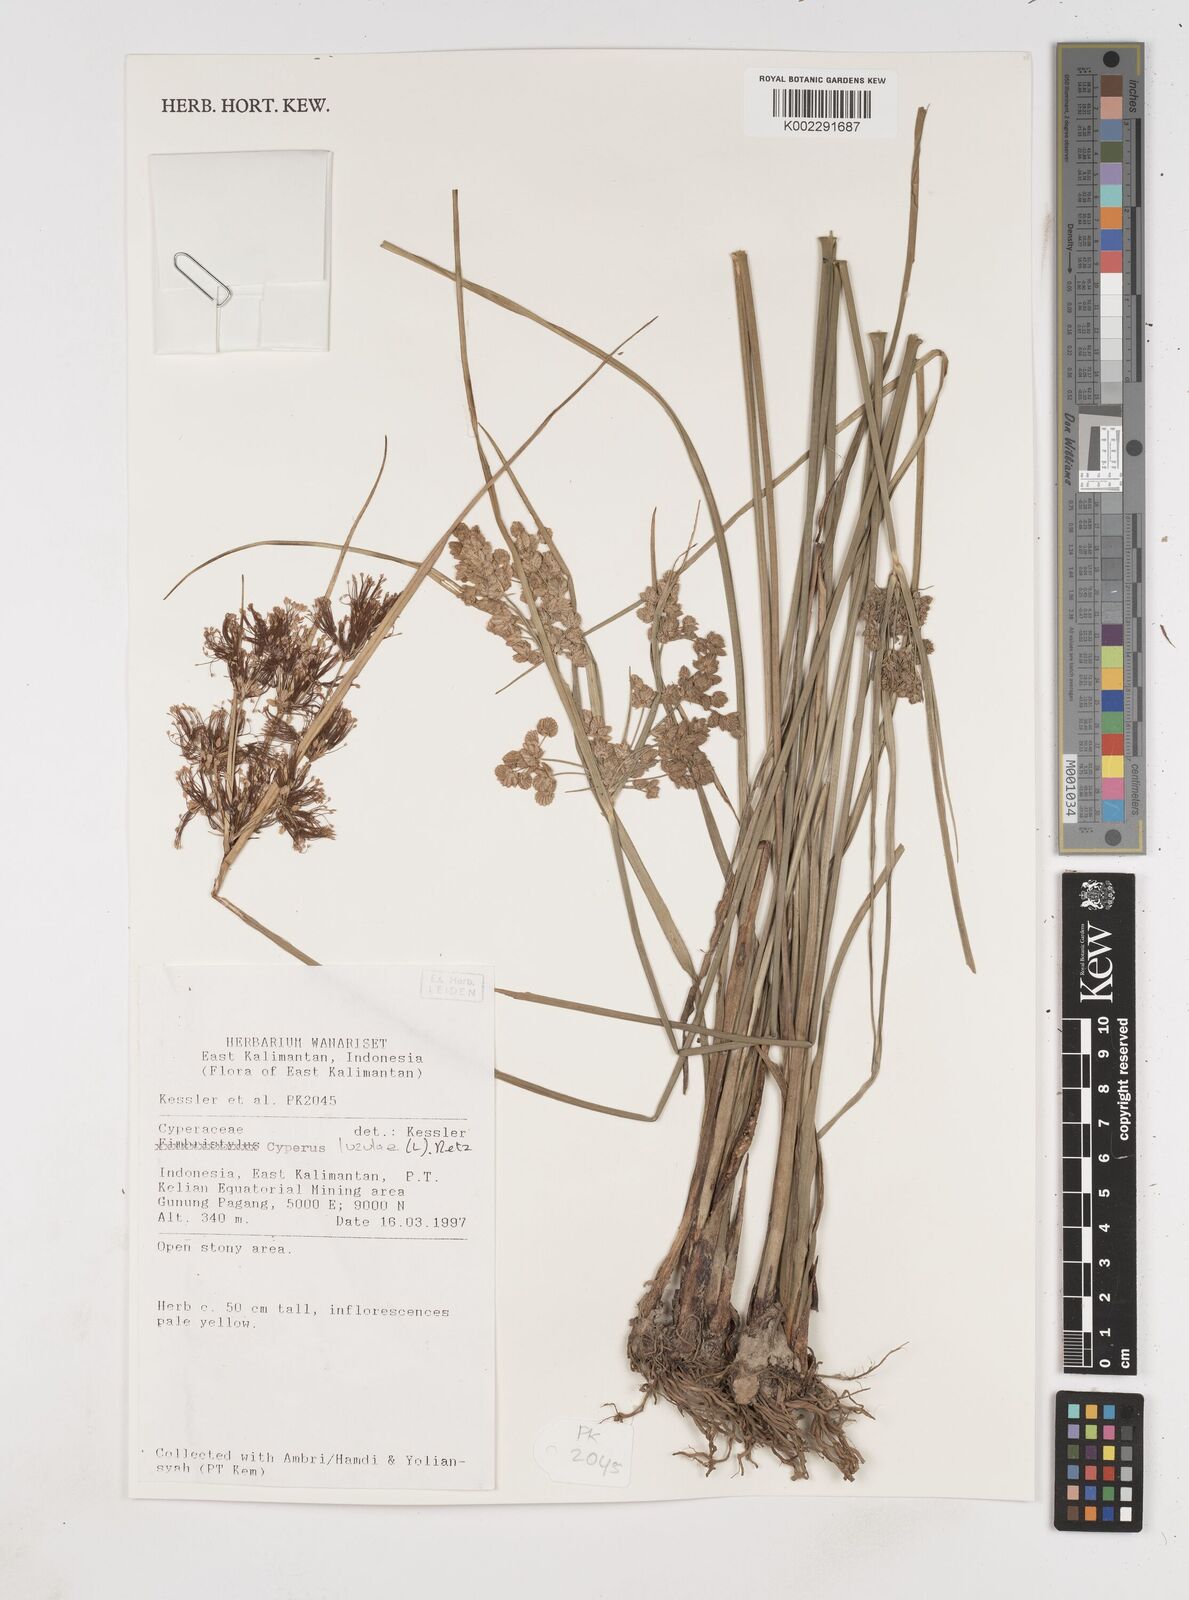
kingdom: Plantae
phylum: Tracheophyta
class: Liliopsida
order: Poales
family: Cyperaceae
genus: Cyperus
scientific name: Cyperus surinamensis
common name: Tropical flat sedge
